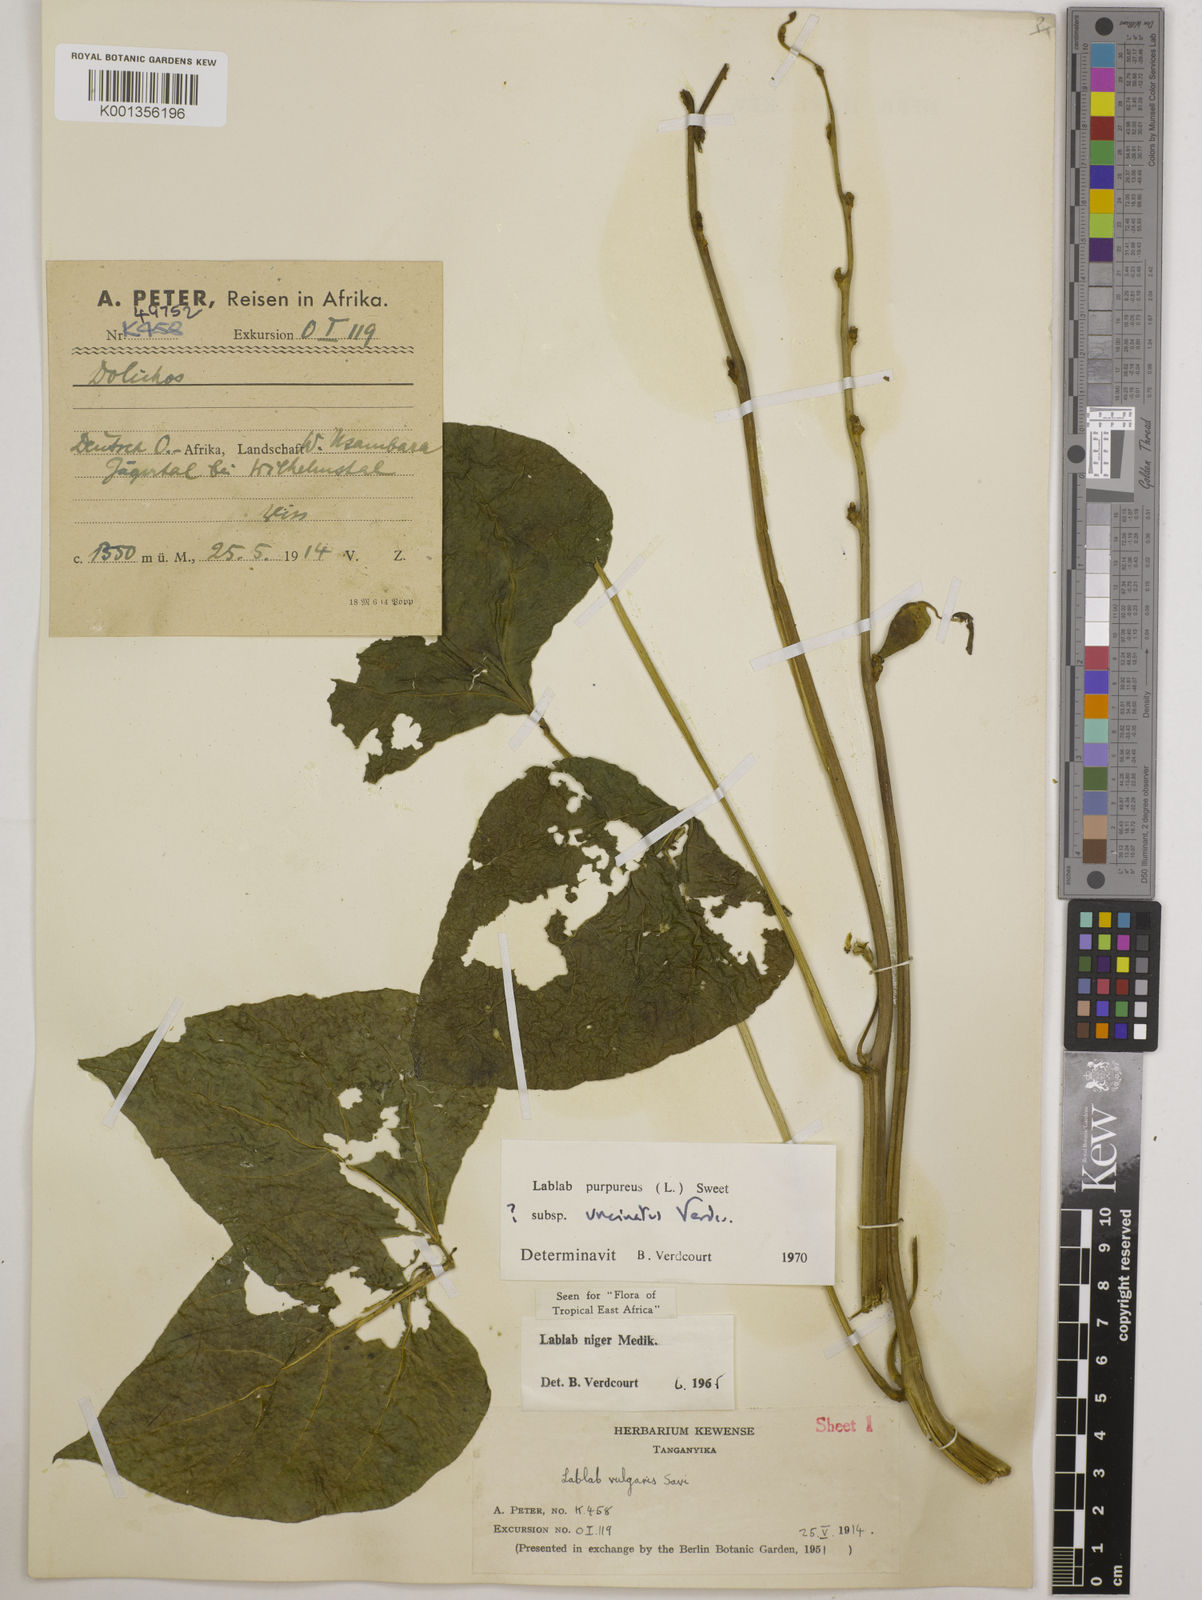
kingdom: Plantae
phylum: Tracheophyta
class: Magnoliopsida
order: Fabales
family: Fabaceae
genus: Lablab
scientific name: Lablab purpureus
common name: Lablab-bean
